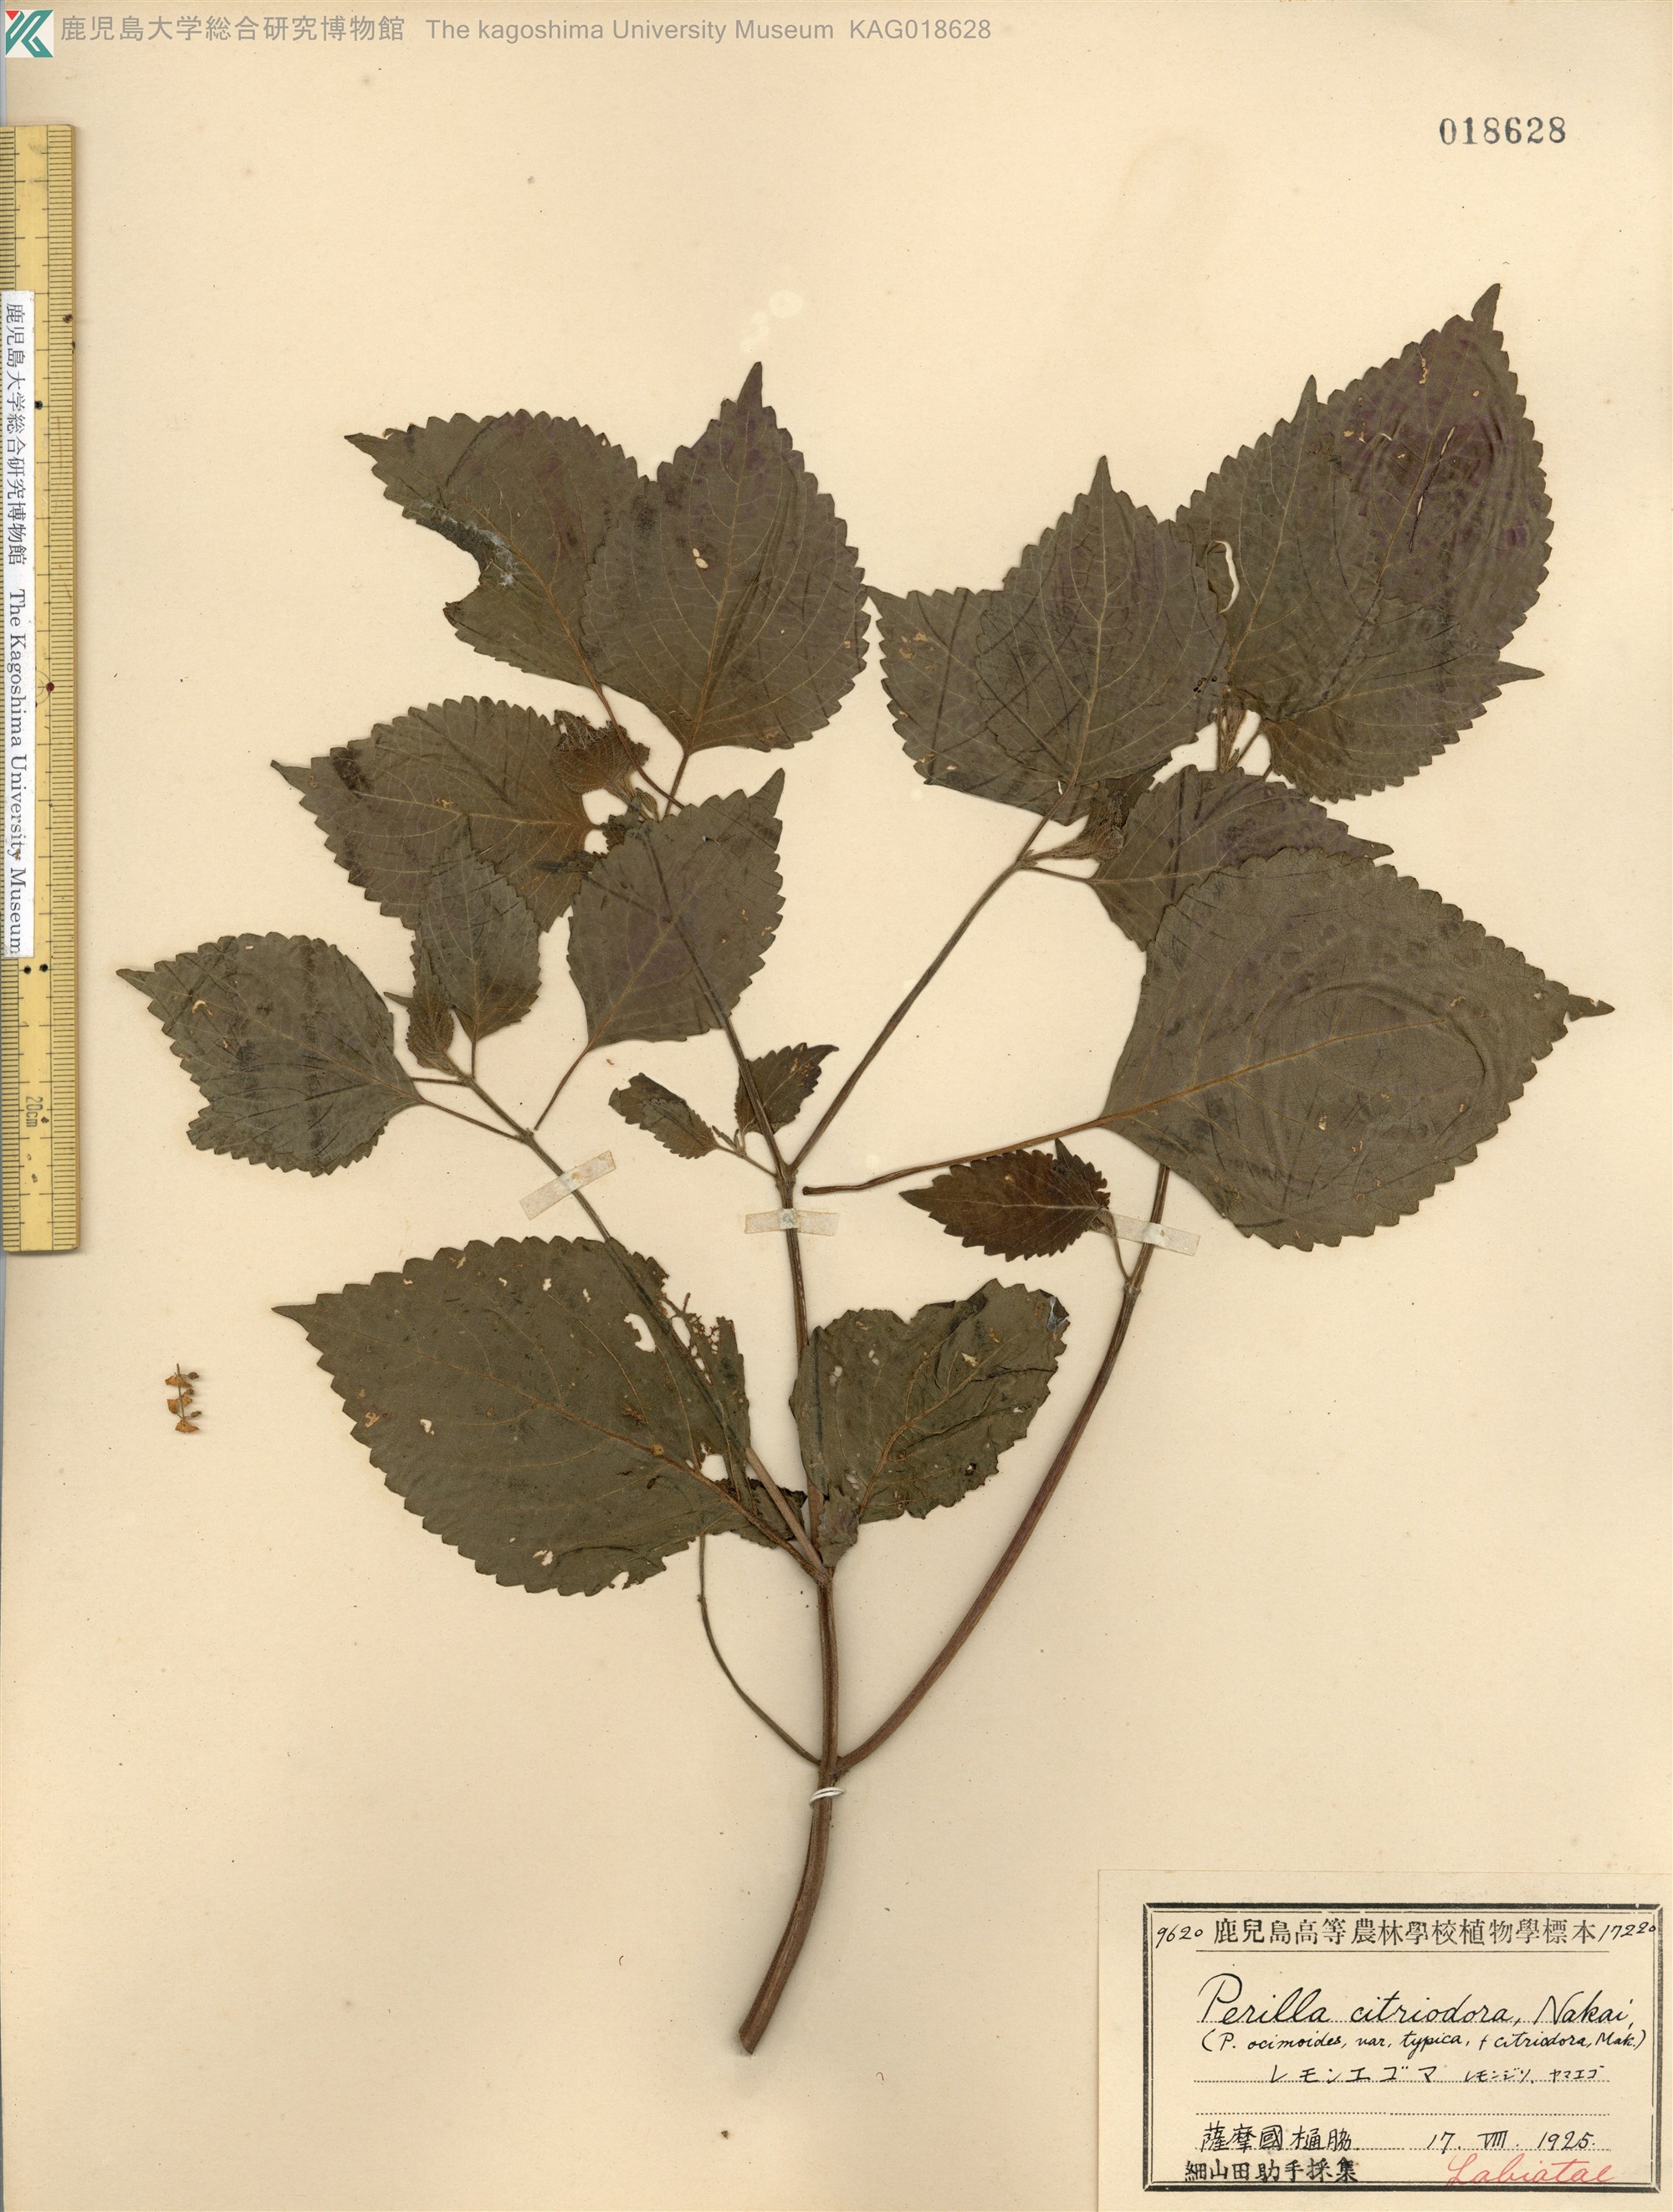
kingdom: Plantae
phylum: Tracheophyta
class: Magnoliopsida
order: Lamiales
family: Lamiaceae
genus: Perilla
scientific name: Perilla frutescens
